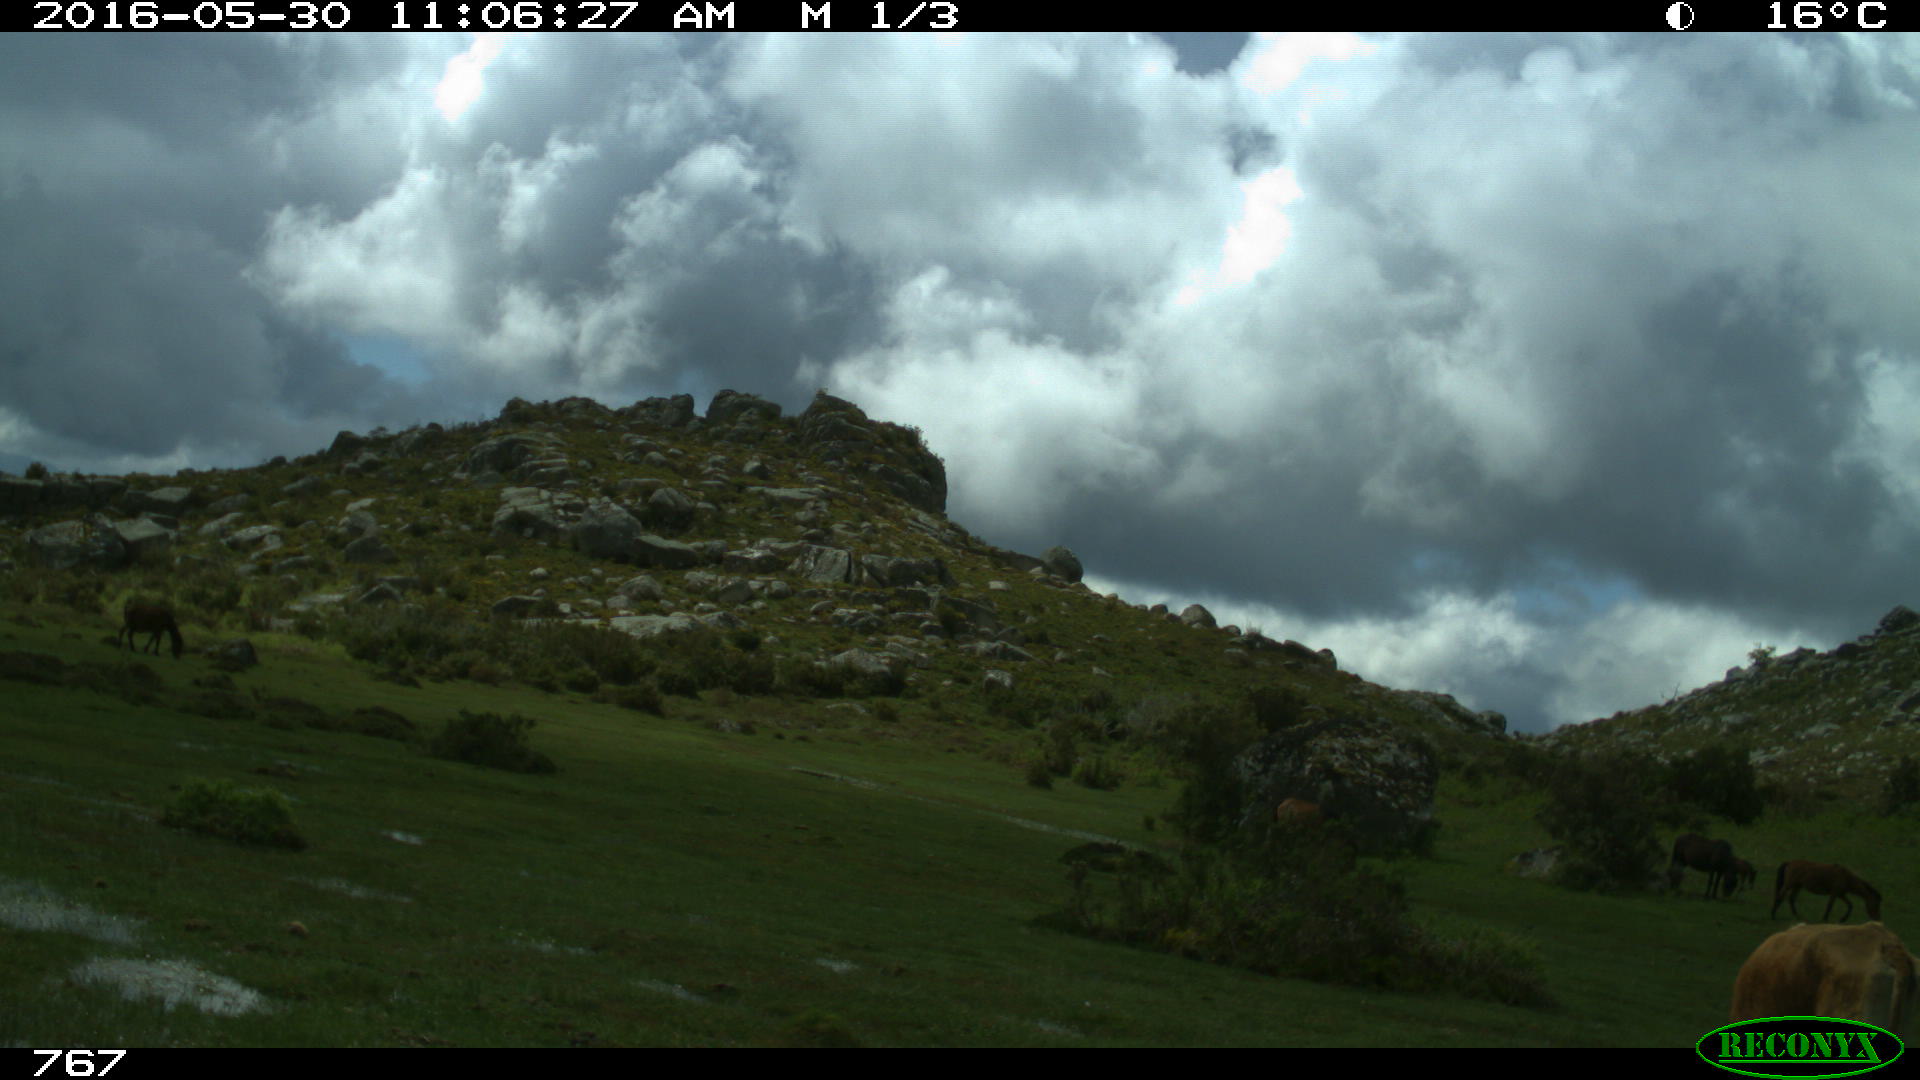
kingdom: Animalia
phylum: Chordata
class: Mammalia
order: Artiodactyla
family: Bovidae
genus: Bos
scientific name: Bos taurus
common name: Domesticated cattle
